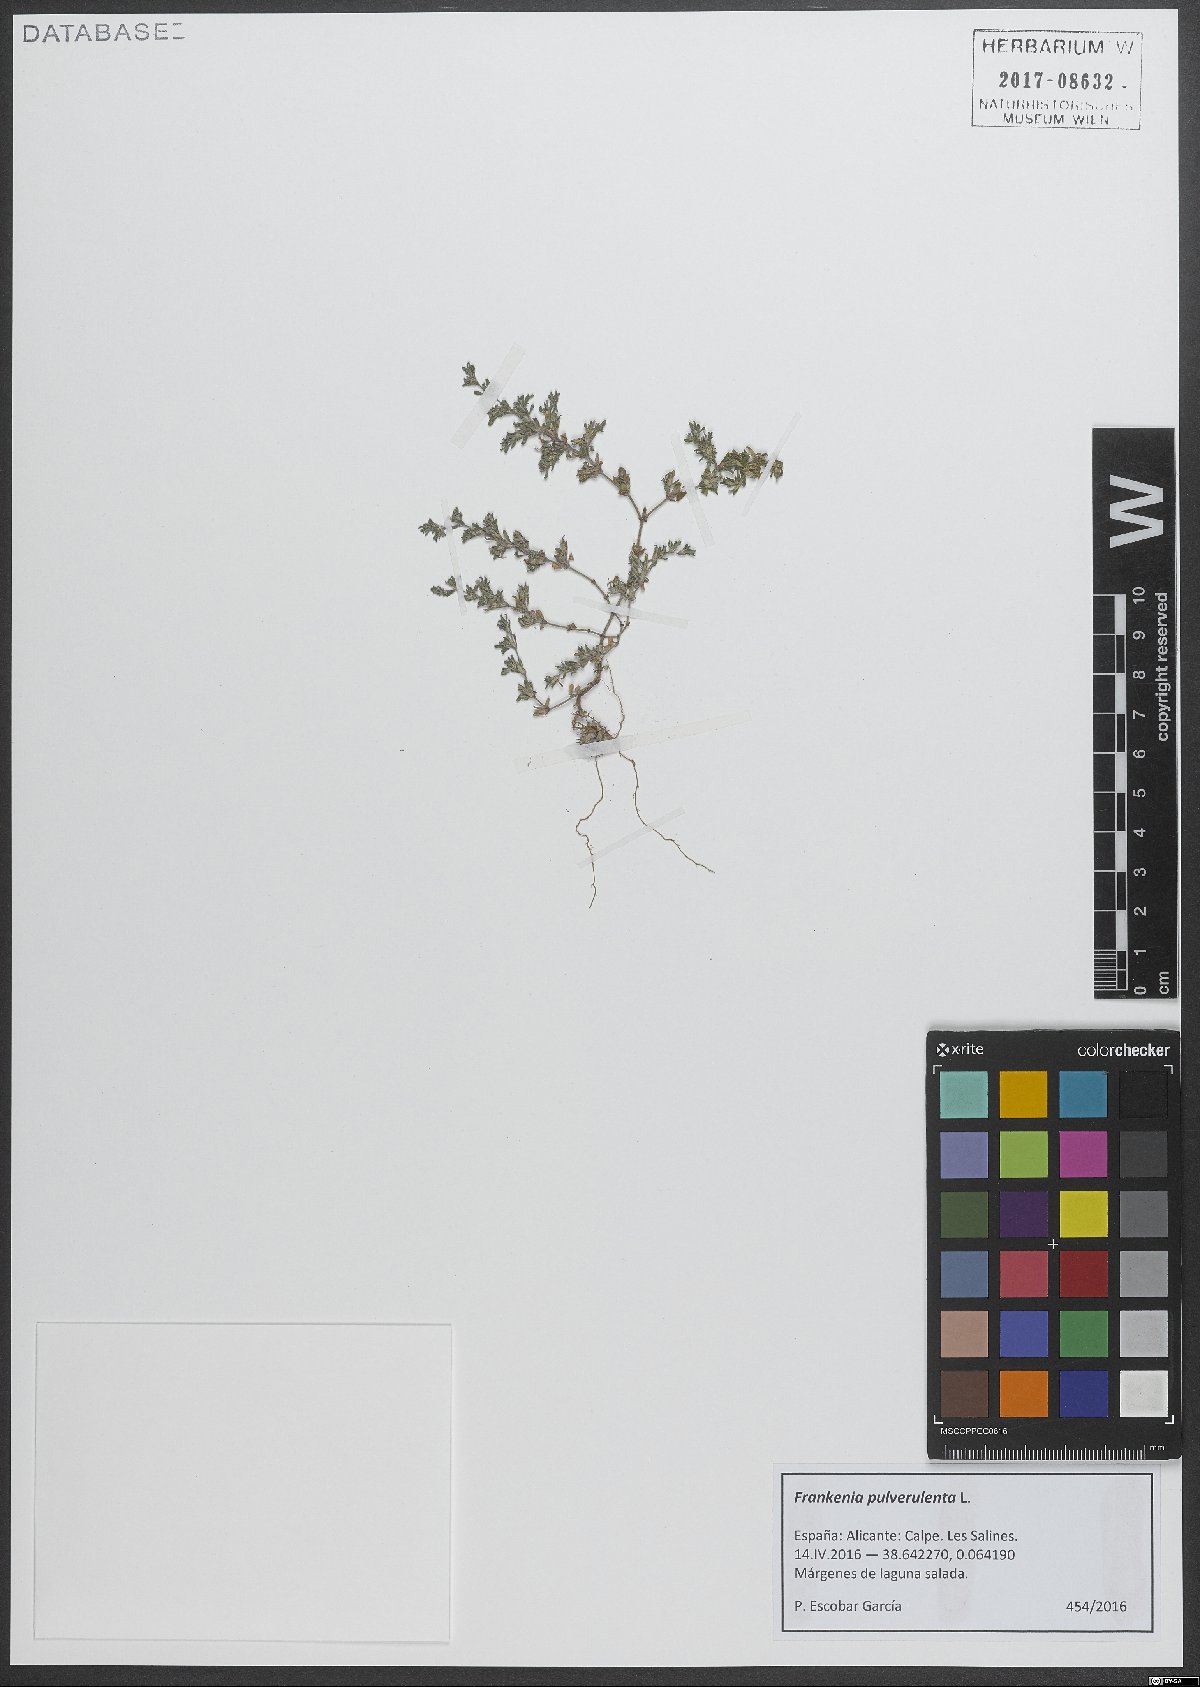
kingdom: Plantae
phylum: Tracheophyta
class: Magnoliopsida
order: Caryophyllales
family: Frankeniaceae
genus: Frankenia
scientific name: Frankenia pulverulenta
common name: European seaheath
